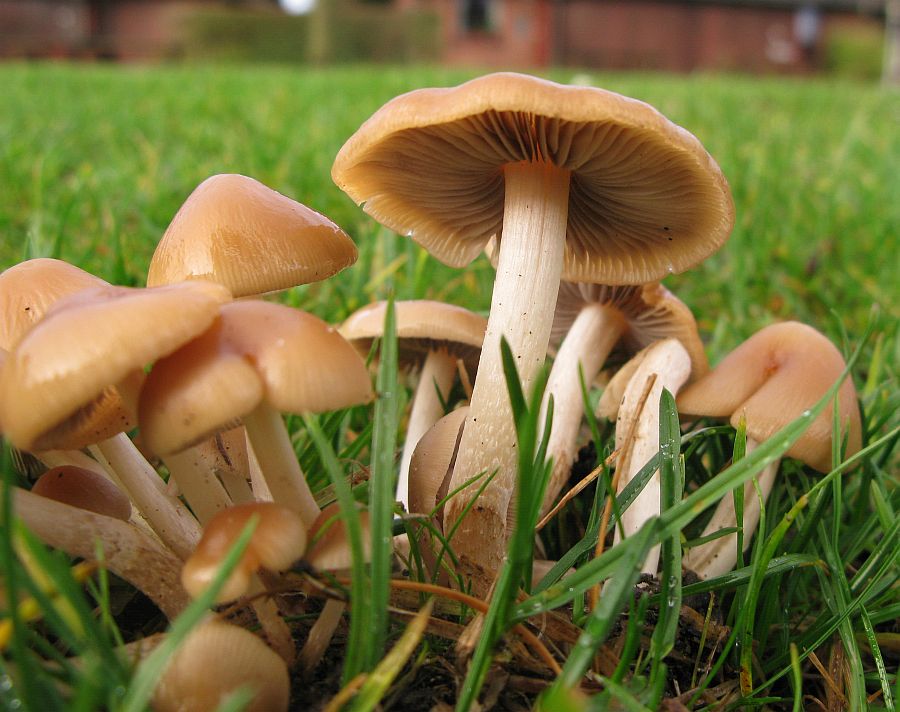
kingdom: Fungi
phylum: Basidiomycota
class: Agaricomycetes
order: Agaricales
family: Psathyrellaceae
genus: Britzelmayria
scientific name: Britzelmayria multipedata
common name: knippe-mørkhat
